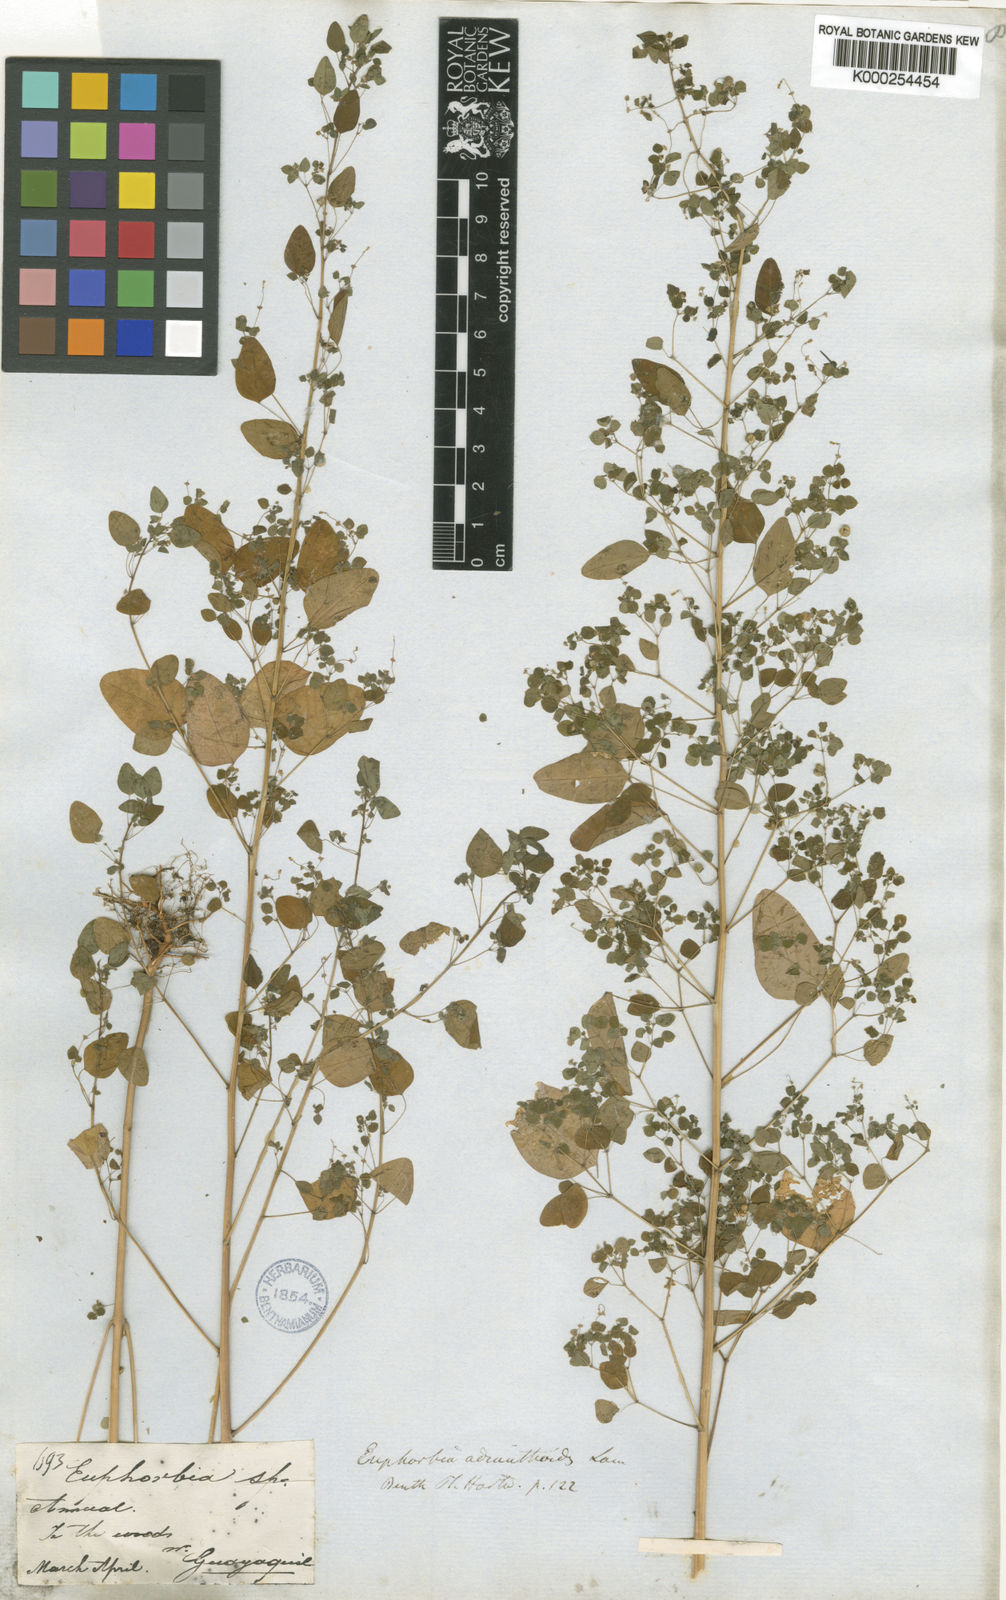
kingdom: Plantae
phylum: Tracheophyta
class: Magnoliopsida
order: Malpighiales
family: Euphorbiaceae
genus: Euphorbia
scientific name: Euphorbia adiantoides
